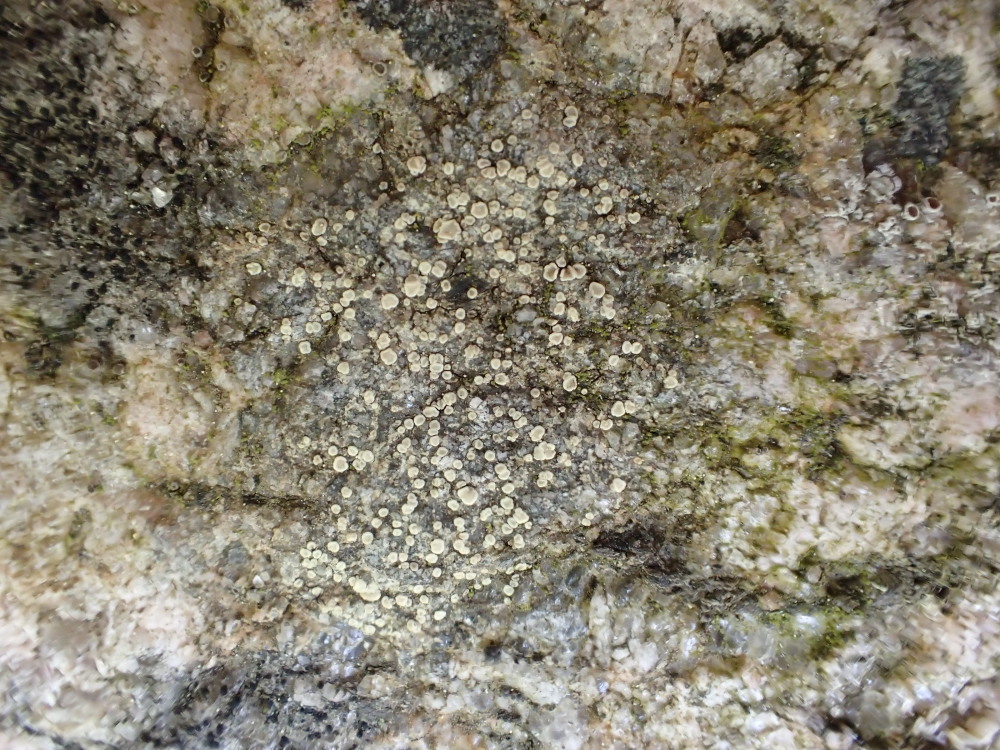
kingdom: Fungi
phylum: Ascomycota
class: Lecanoromycetes
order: Lecanorales
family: Lecanoraceae
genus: Lecanora
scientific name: Lecanora polytropa
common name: bleggrøn kantskivelav
